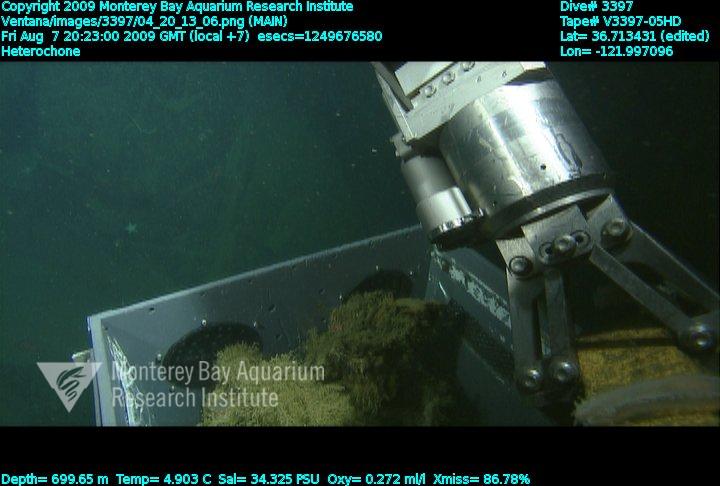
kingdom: Animalia
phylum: Porifera
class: Hexactinellida
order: Sceptrulophora
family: Aphrocallistidae
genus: Heterochone
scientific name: Heterochone
